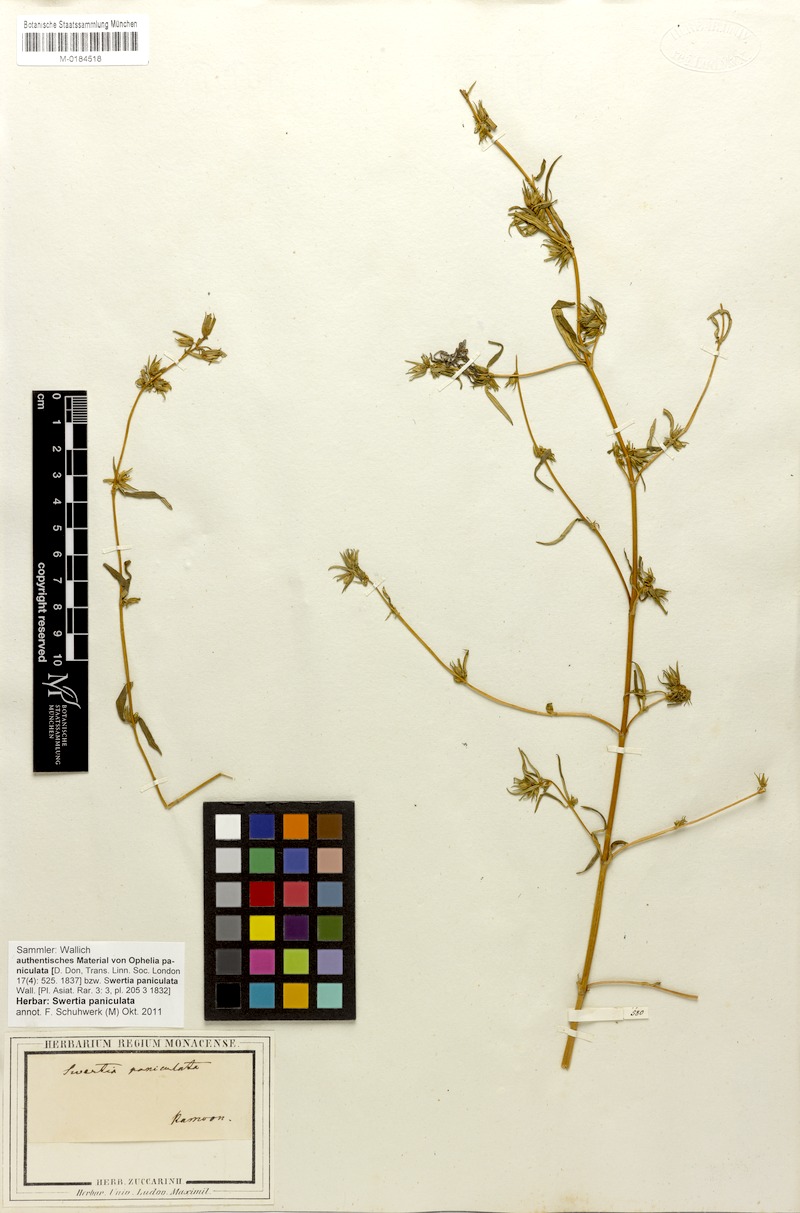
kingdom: Plantae
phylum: Tracheophyta
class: Magnoliopsida
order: Gentianales
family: Gentianaceae
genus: Swertia
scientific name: Swertia paniculata
